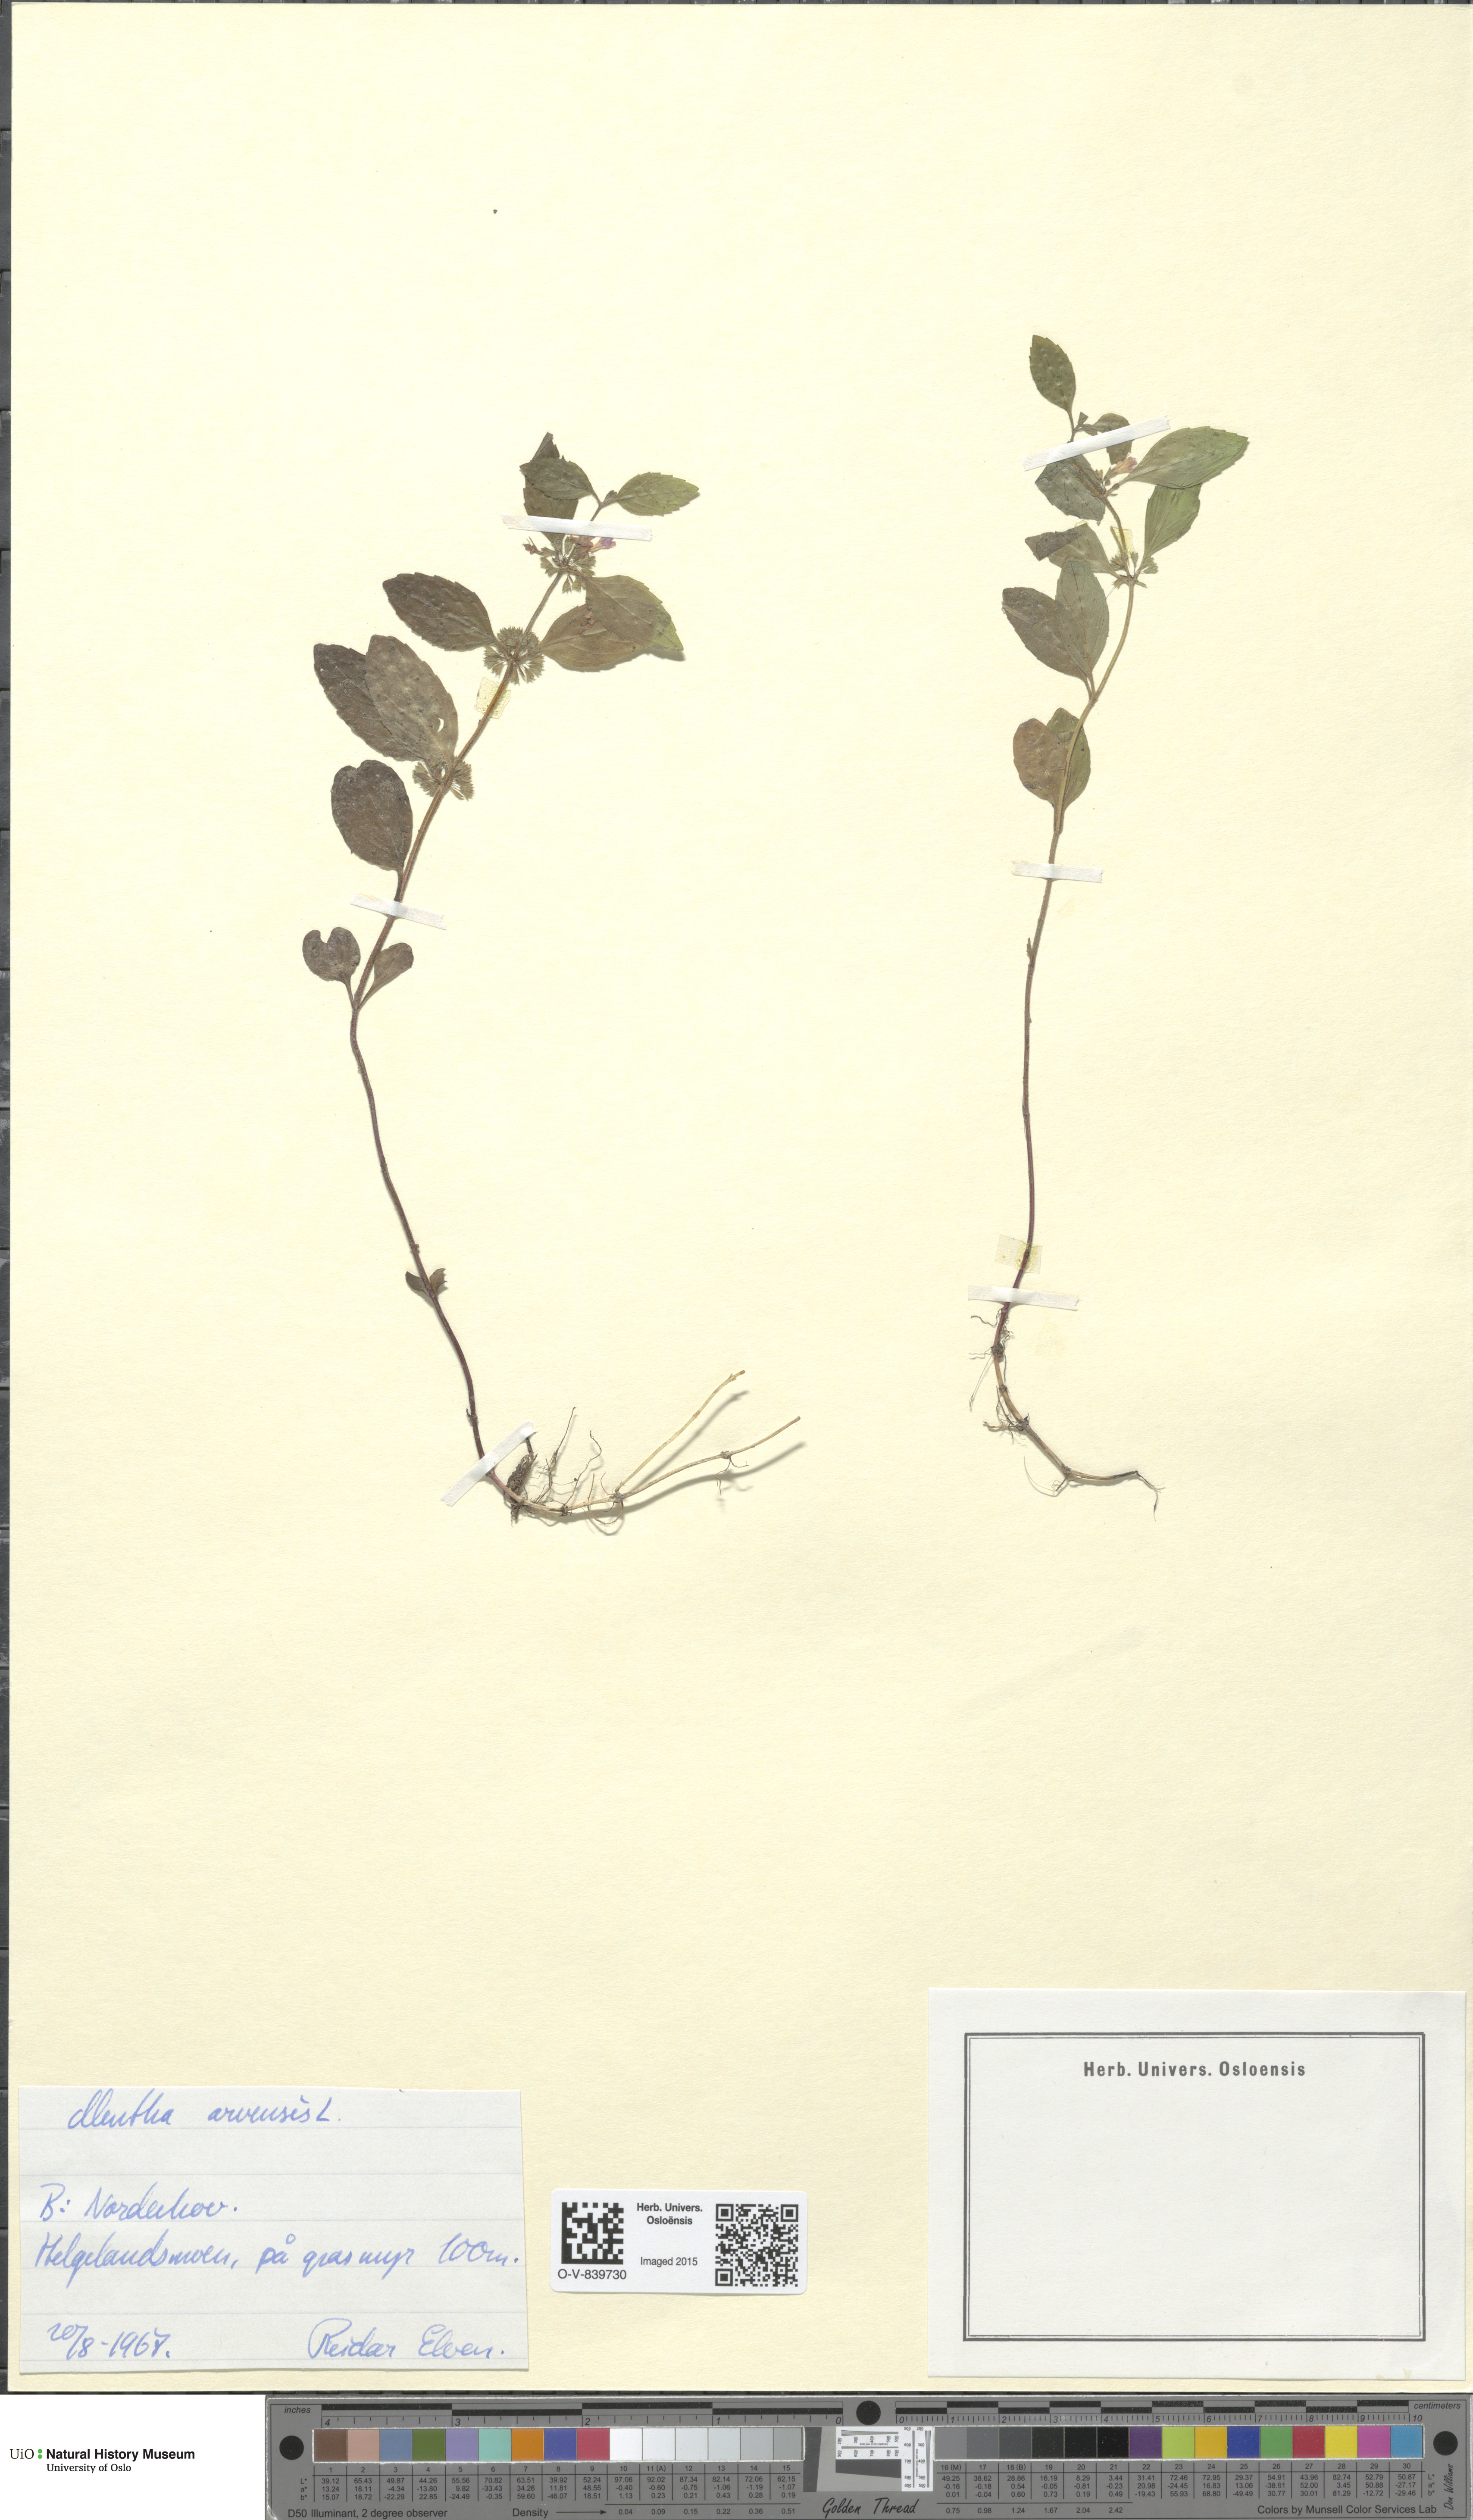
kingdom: Plantae
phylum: Tracheophyta
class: Magnoliopsida
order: Lamiales
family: Lamiaceae
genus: Mentha
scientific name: Mentha arvensis
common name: Corn mint
